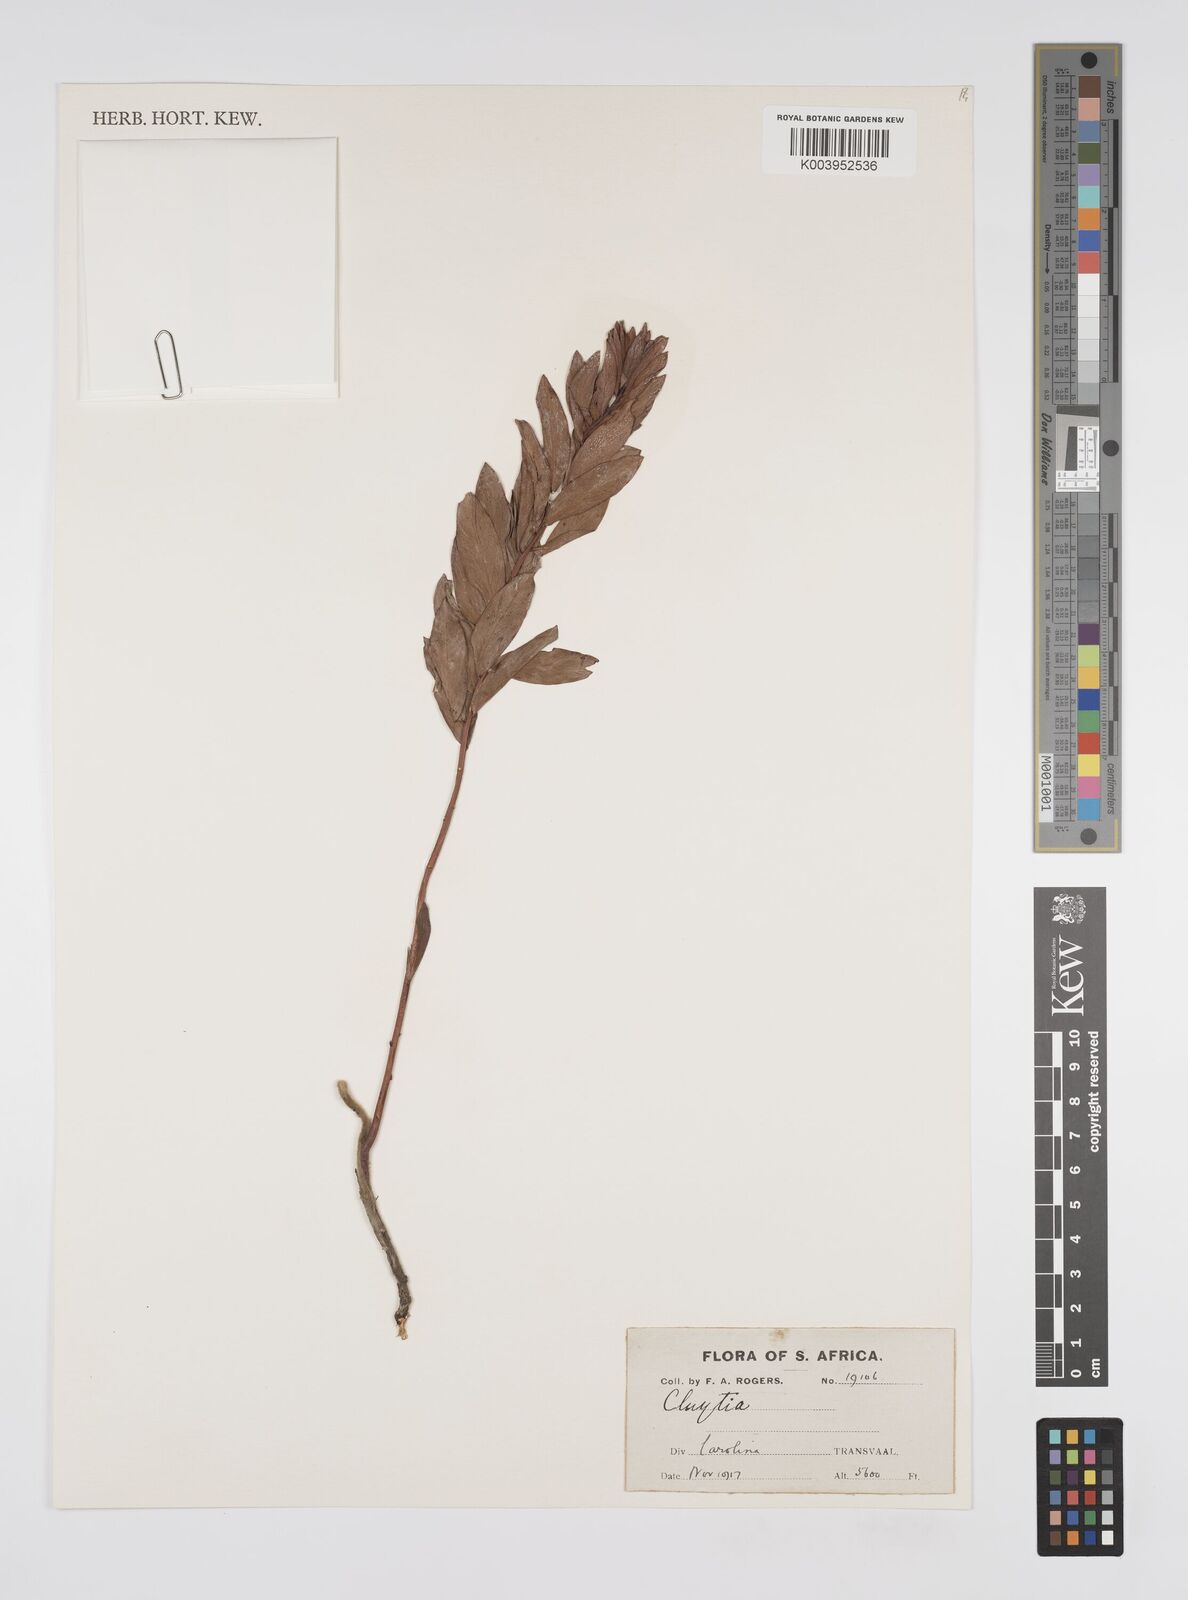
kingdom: Plantae
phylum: Tracheophyta
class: Magnoliopsida
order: Malpighiales
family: Peraceae
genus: Clutia
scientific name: Clutia
